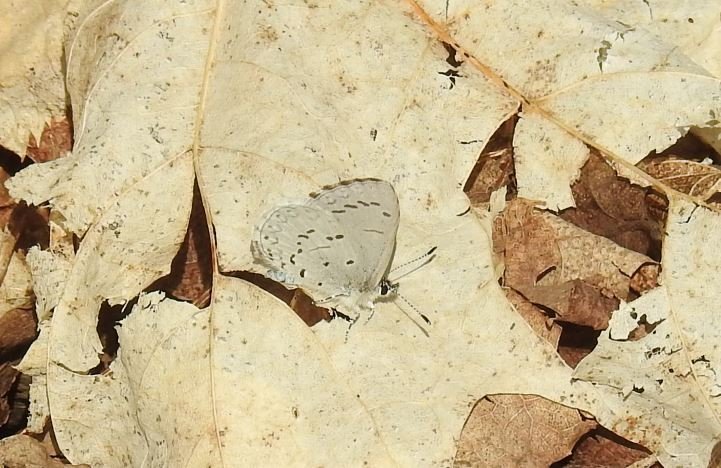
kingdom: Animalia
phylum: Arthropoda
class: Insecta
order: Lepidoptera
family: Lycaenidae
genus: Celastrina
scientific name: Celastrina
